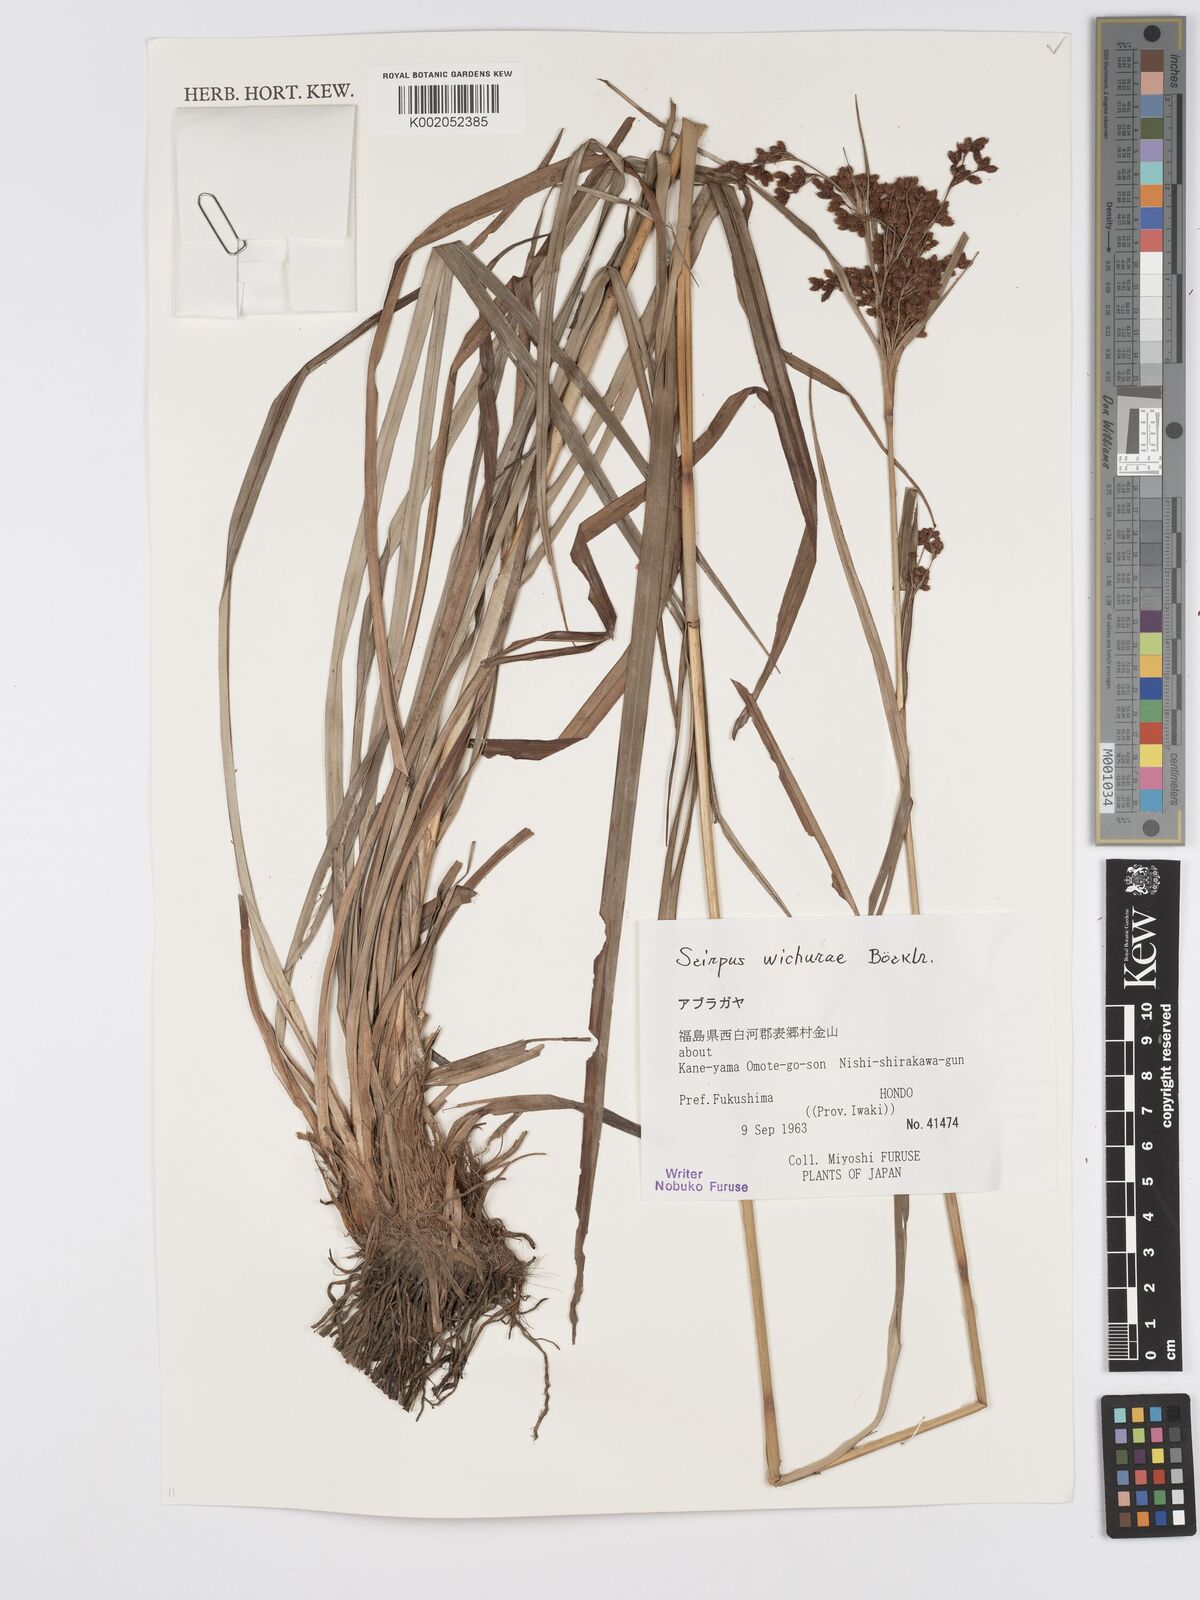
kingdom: Plantae
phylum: Tracheophyta
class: Liliopsida
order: Poales
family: Cyperaceae
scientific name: Cyperaceae
